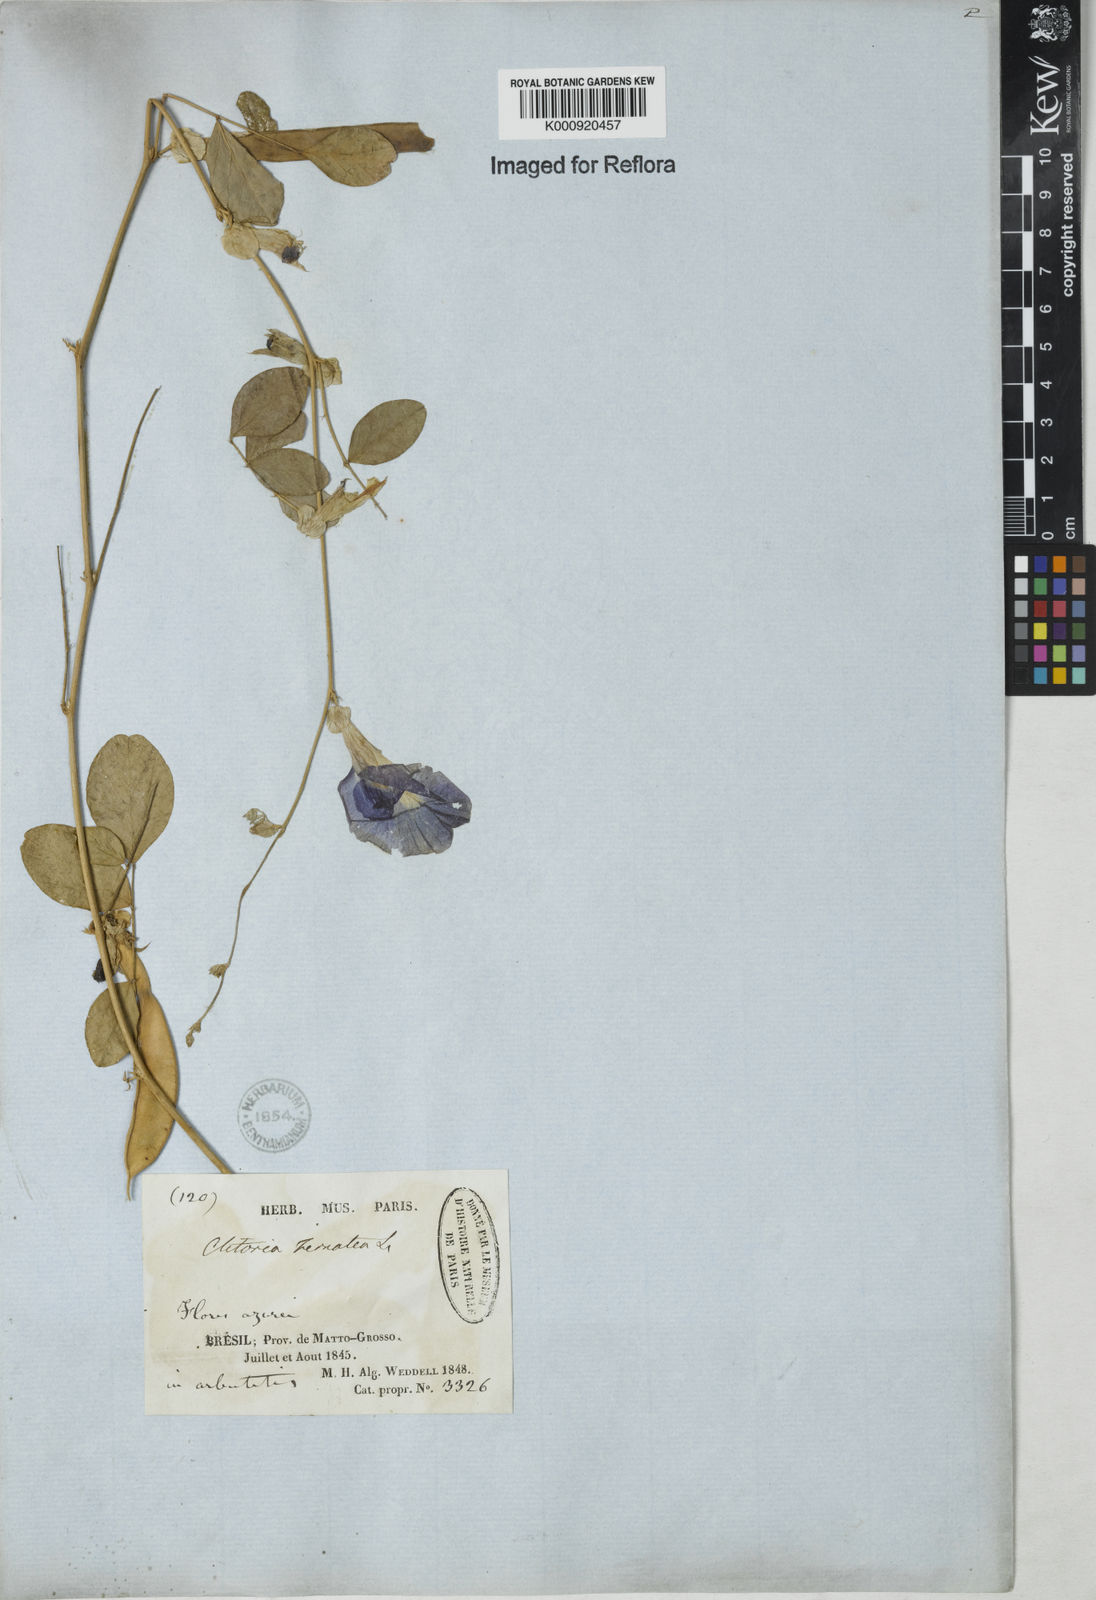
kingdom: Plantae
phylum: Tracheophyta
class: Magnoliopsida
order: Fabales
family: Fabaceae
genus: Clitoria
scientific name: Clitoria ternatea
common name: Asian pigeonwings
